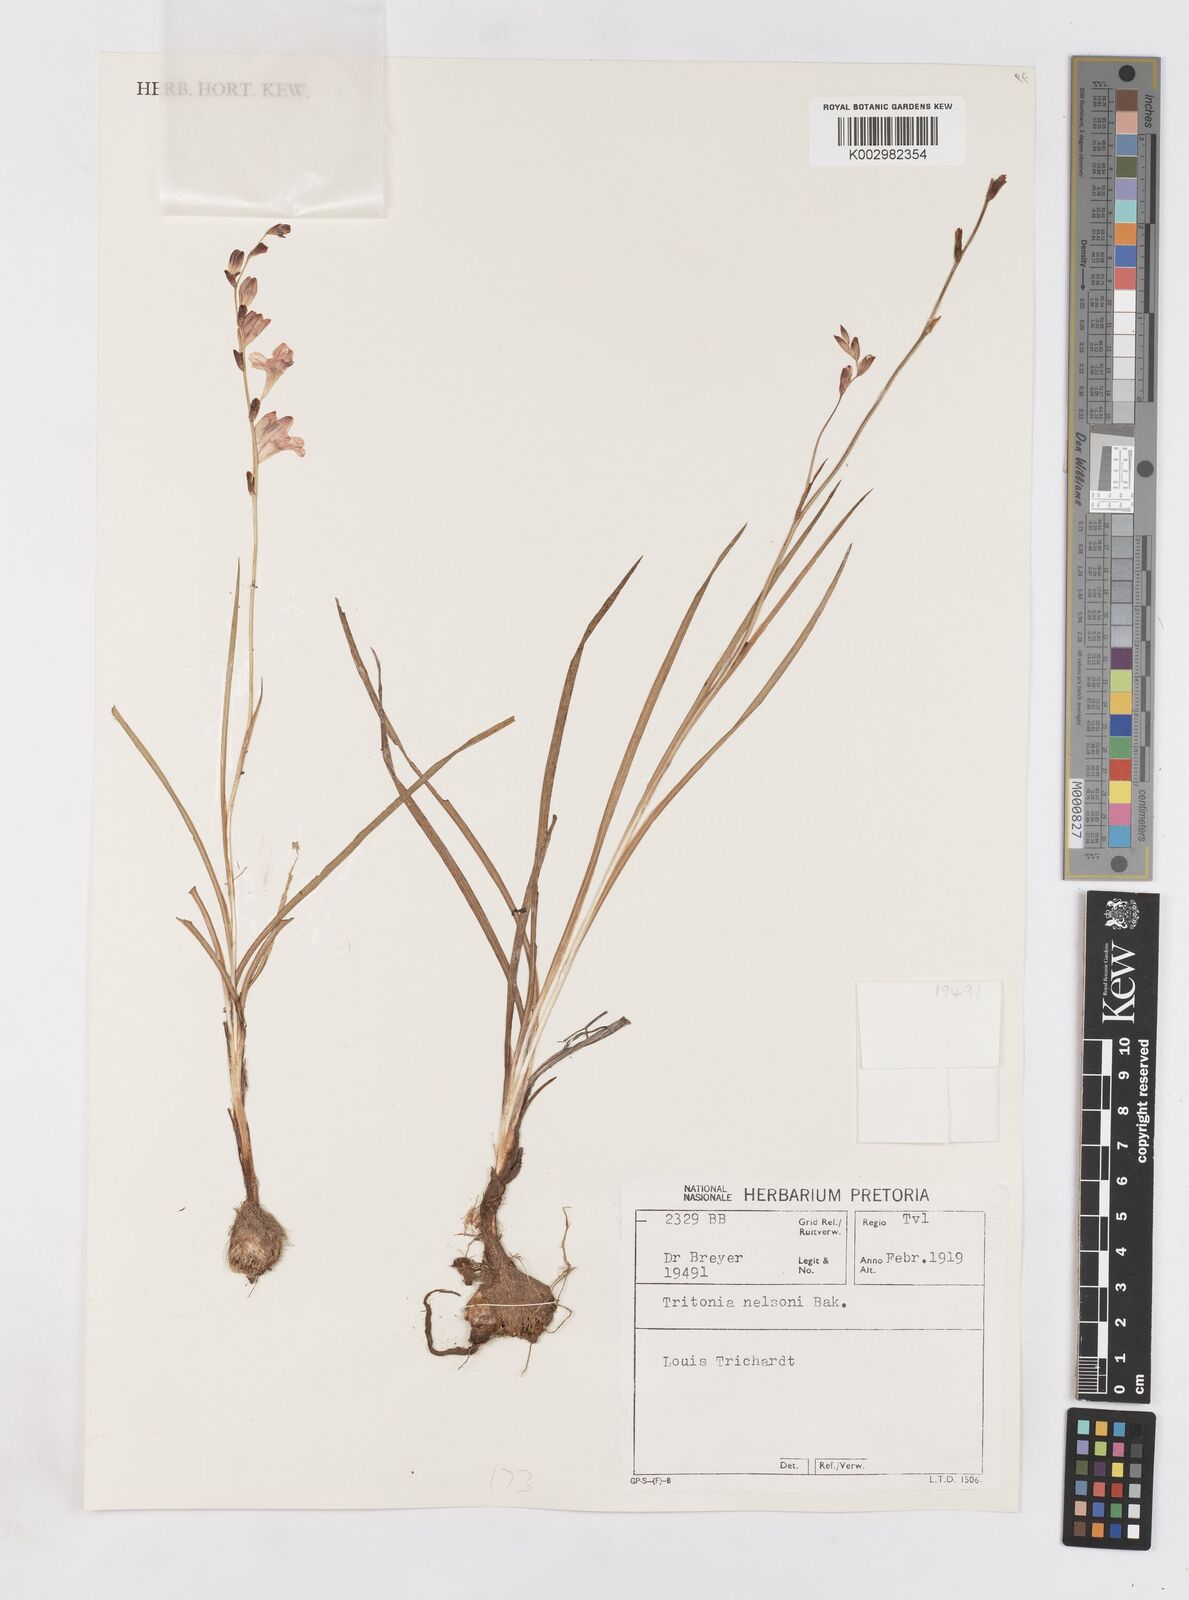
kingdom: Plantae
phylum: Tracheophyta
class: Liliopsida
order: Asparagales
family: Iridaceae
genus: Tritonia
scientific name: Tritonia nelsonii
